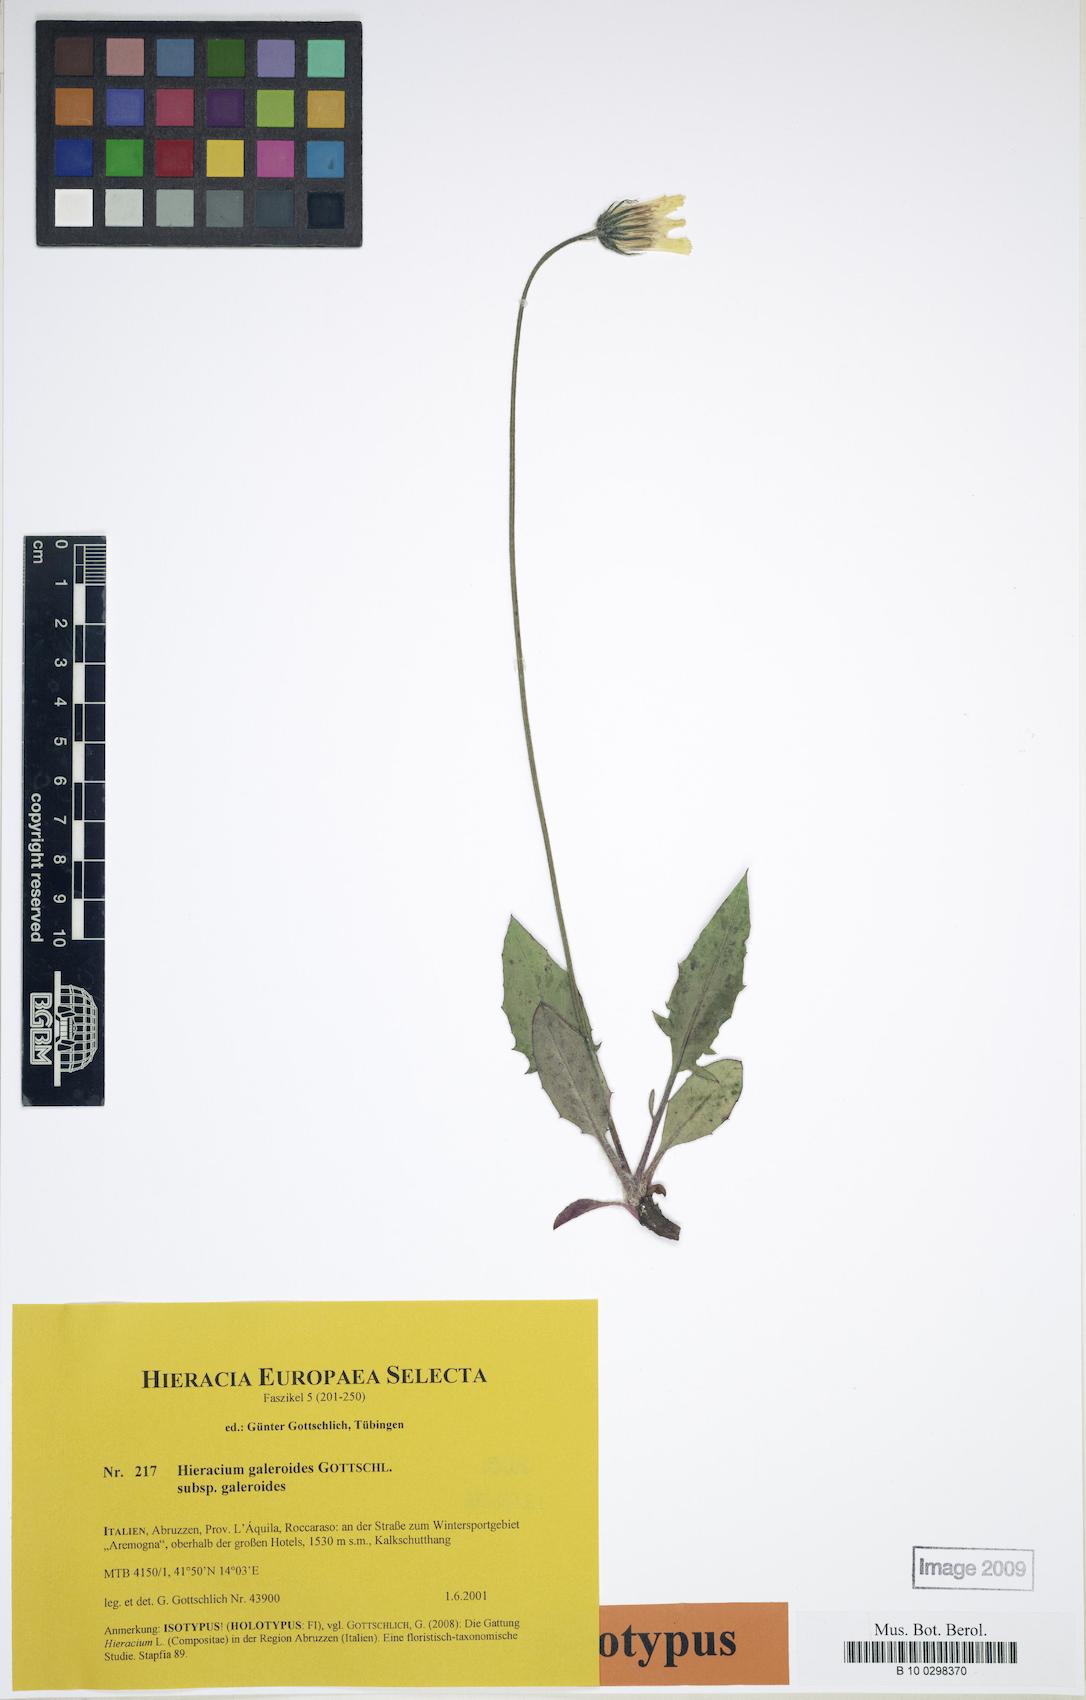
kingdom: Plantae
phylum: Tracheophyta
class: Magnoliopsida
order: Asterales
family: Asteraceae
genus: Hieracium
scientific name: Hieracium galeroides
